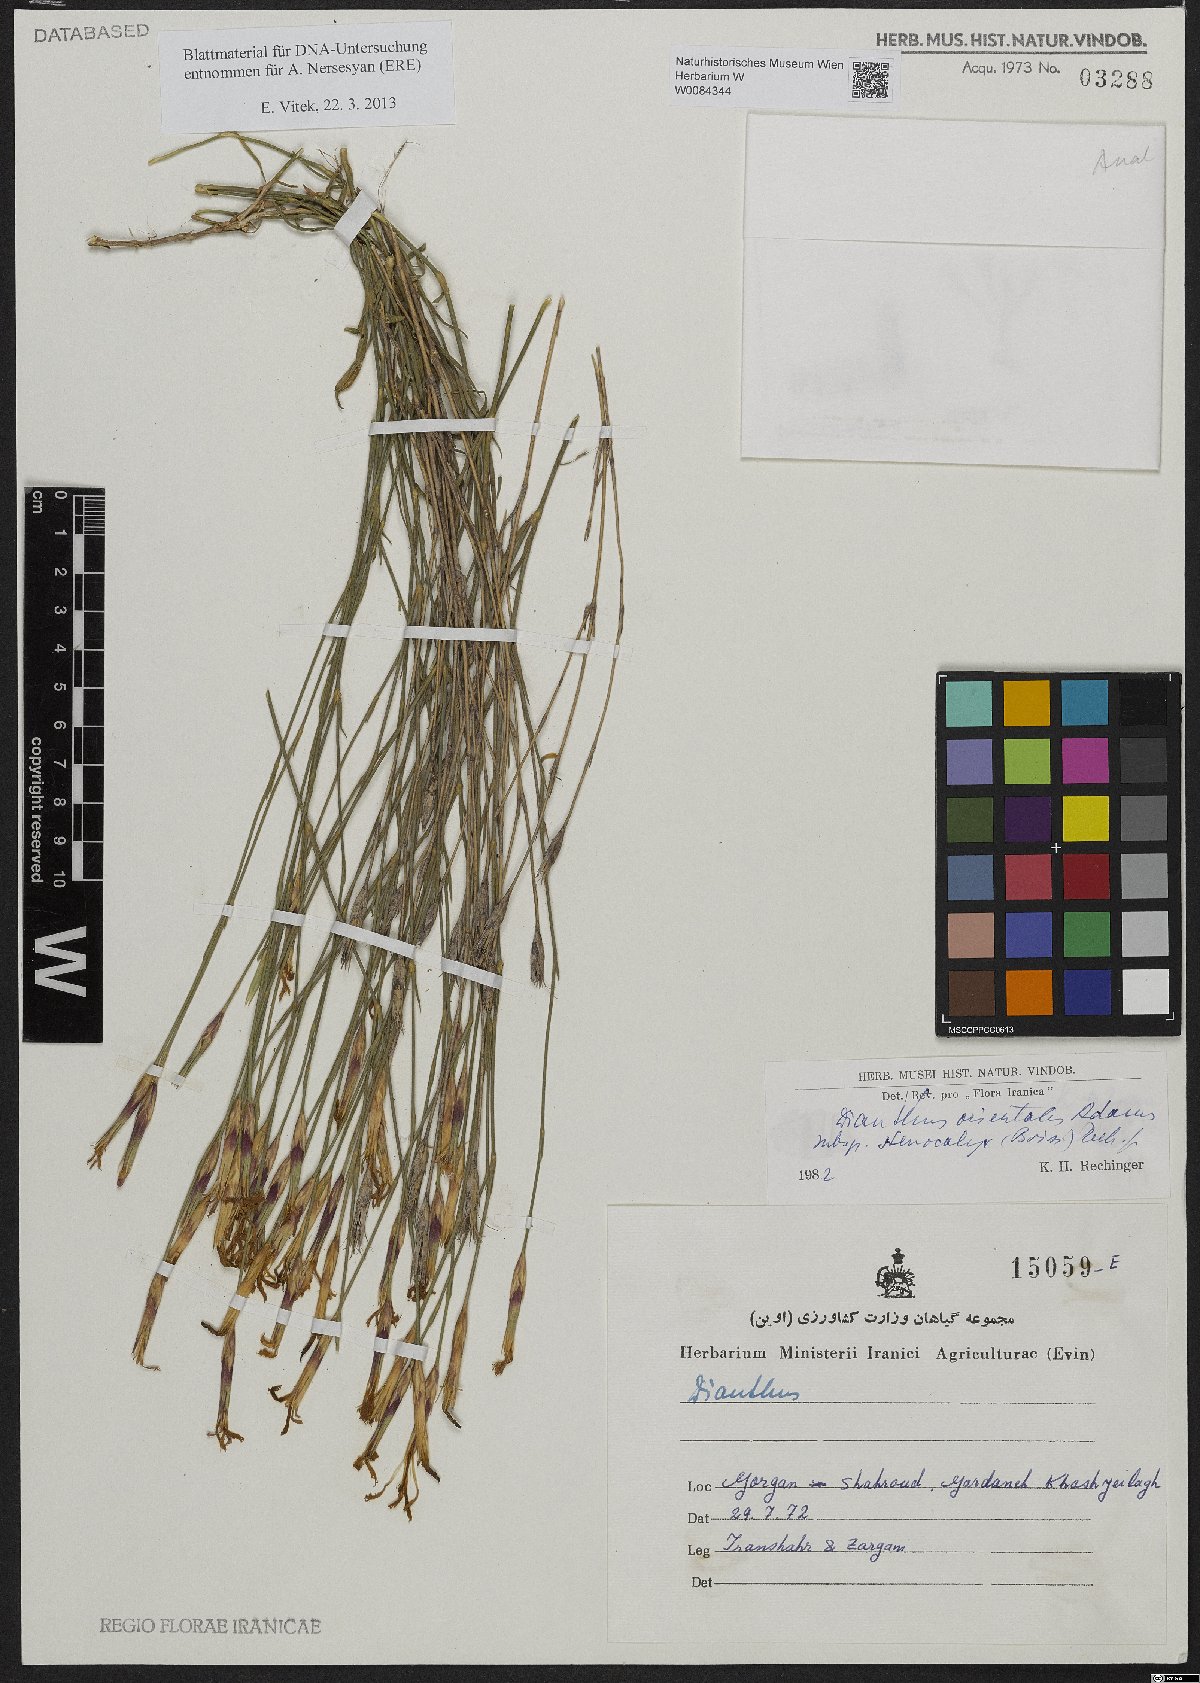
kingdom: Plantae
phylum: Tracheophyta
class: Magnoliopsida
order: Caryophyllales
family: Caryophyllaceae
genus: Dianthus
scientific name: Dianthus orientalis
